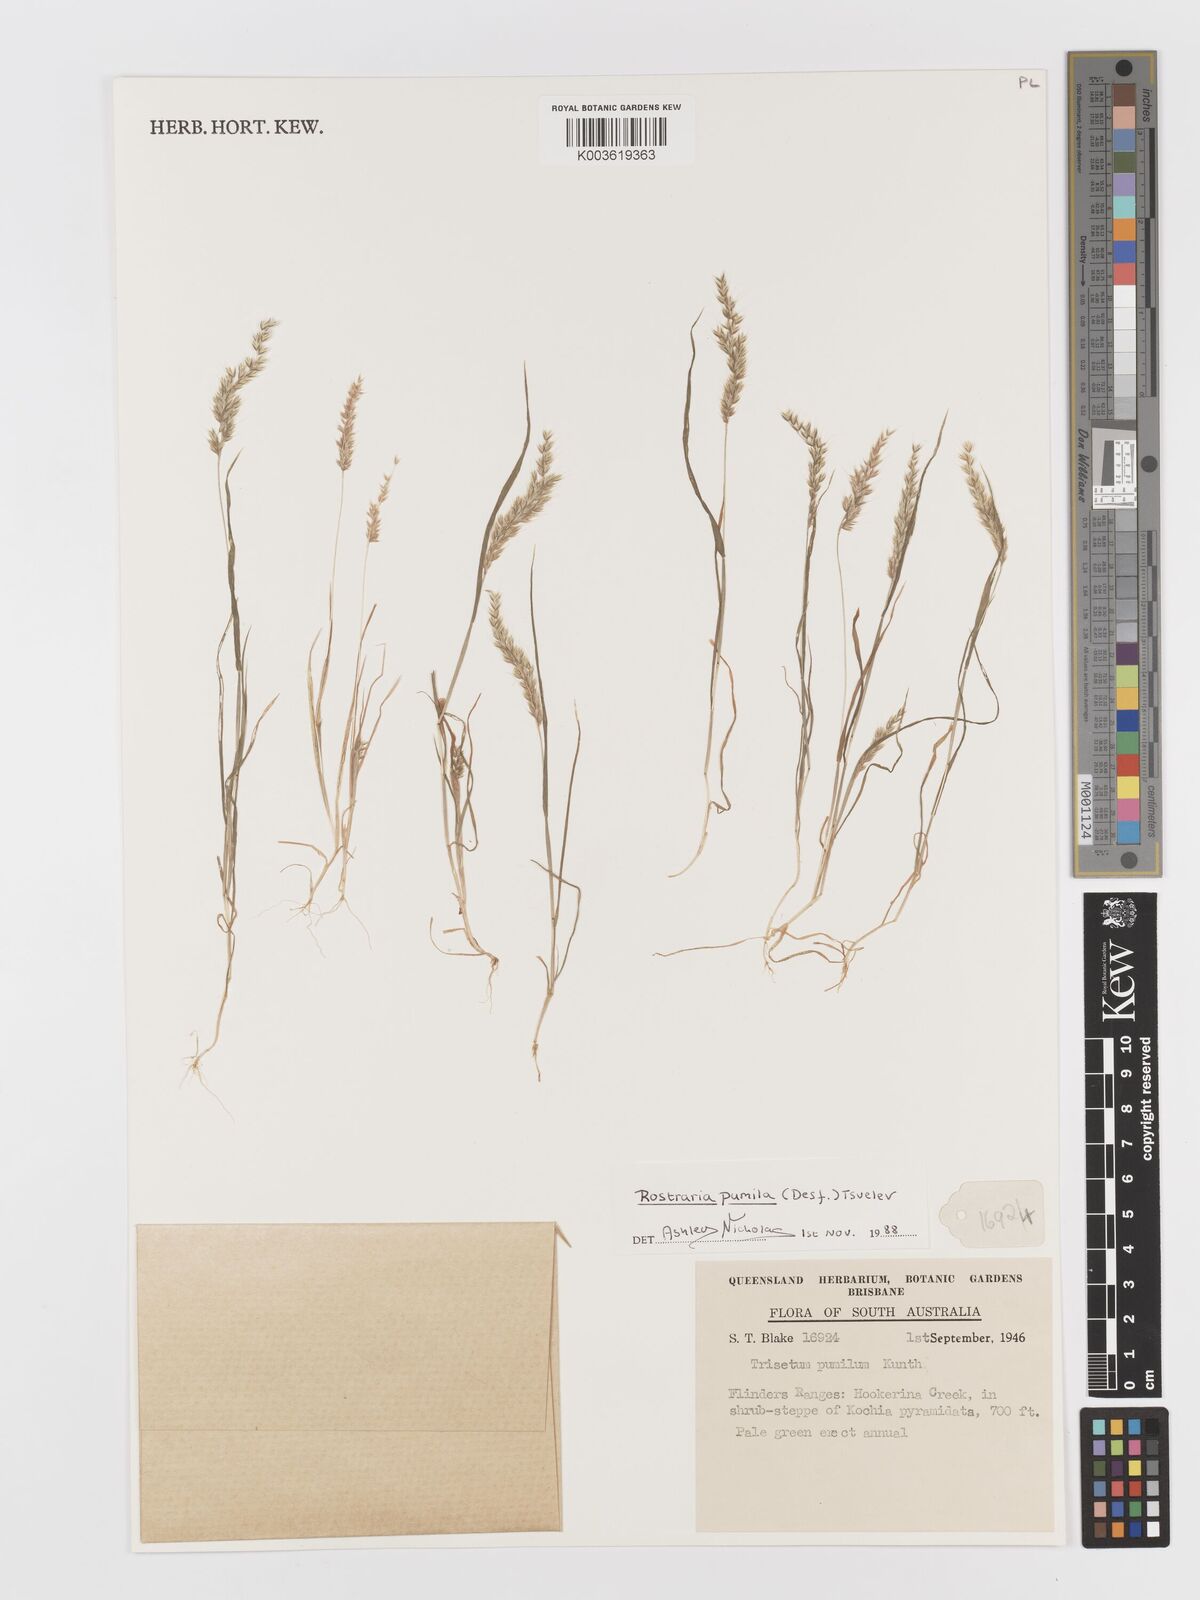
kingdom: Plantae
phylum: Tracheophyta
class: Liliopsida
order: Poales
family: Poaceae
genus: Rostraria
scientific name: Rostraria pumila
